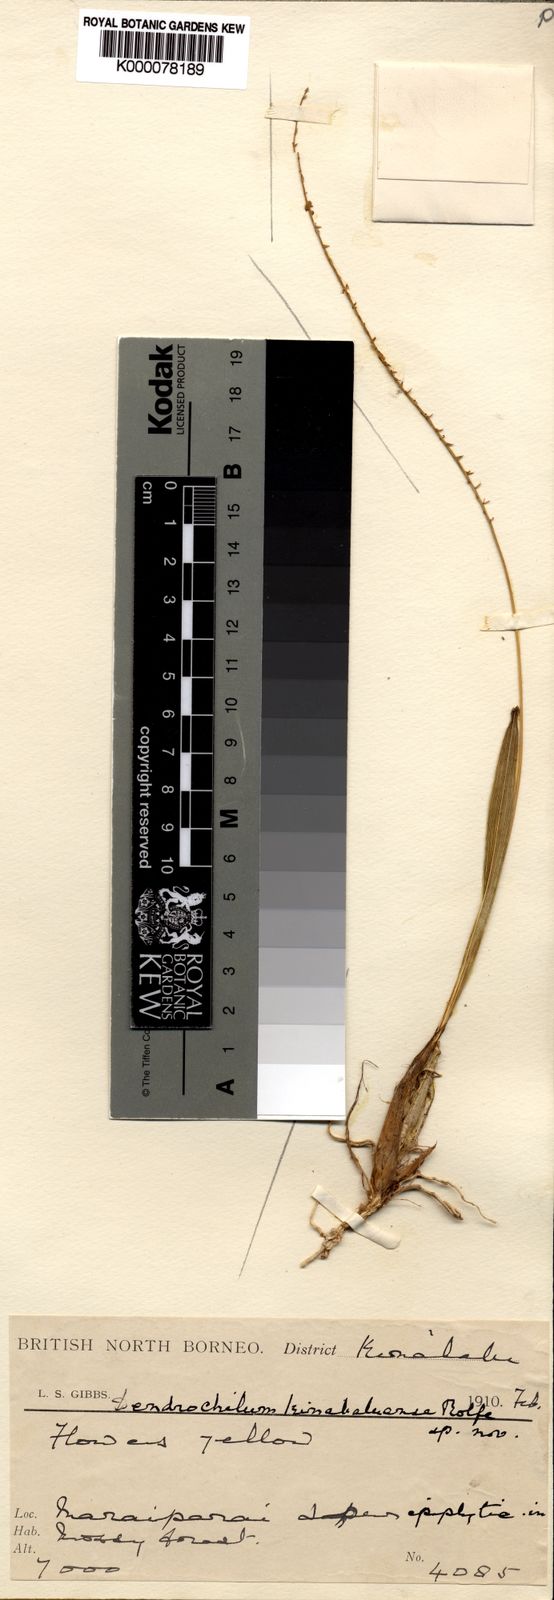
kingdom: Plantae
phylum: Tracheophyta
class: Liliopsida
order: Asparagales
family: Orchidaceae
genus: Coelogyne
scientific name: Coelogyne gibbsiae
